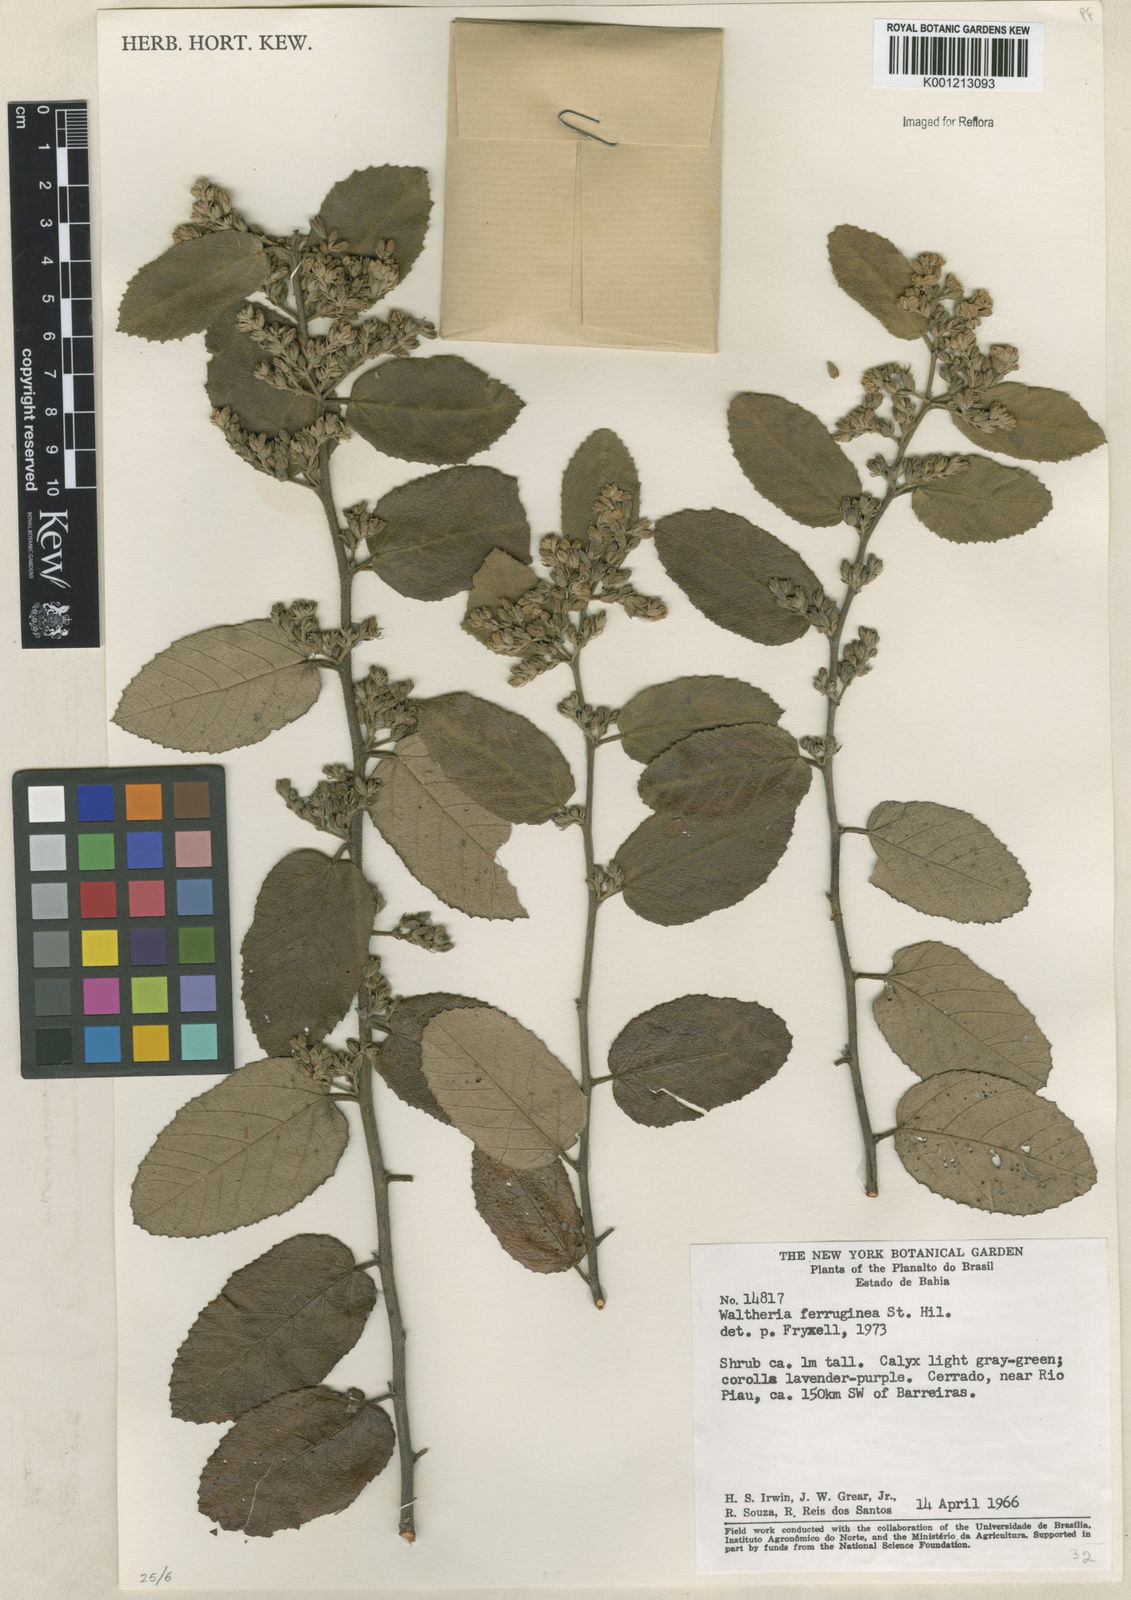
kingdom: Plantae
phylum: Tracheophyta
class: Magnoliopsida
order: Malvales
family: Malvaceae
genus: Waltheria
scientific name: Waltheria ferruginea
